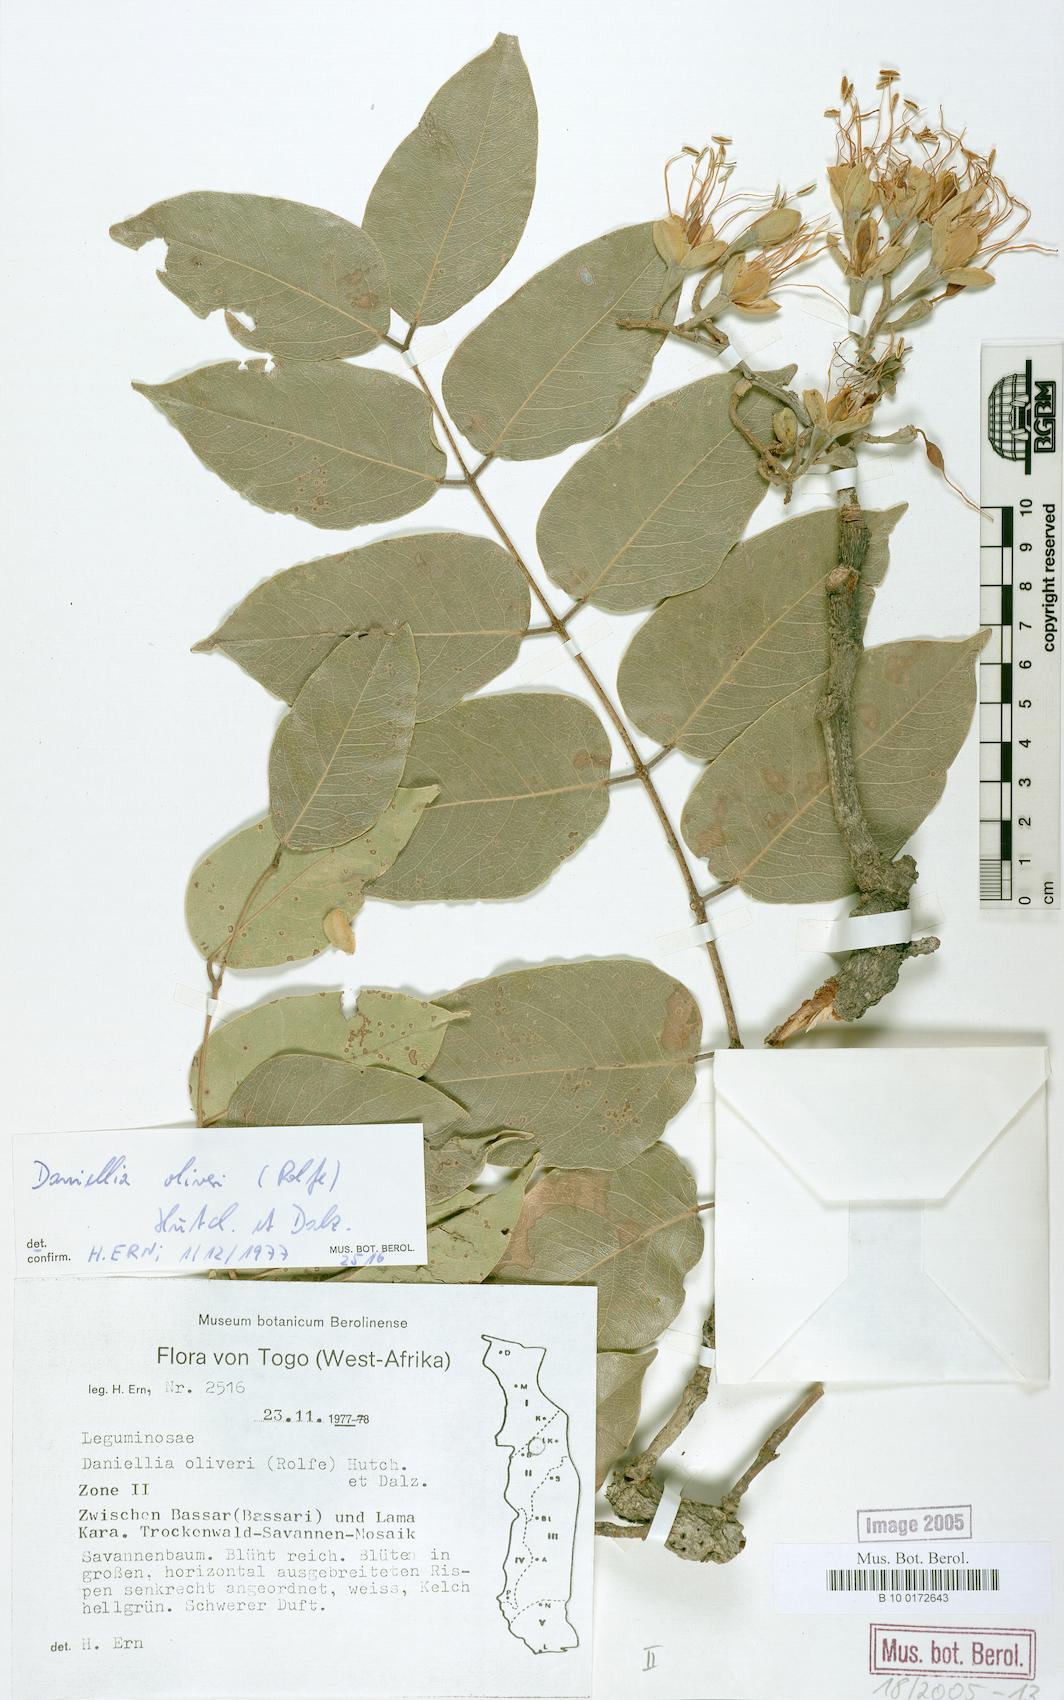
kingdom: Plantae
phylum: Tracheophyta
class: Magnoliopsida
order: Fabales
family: Fabaceae
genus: Daniellia
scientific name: Daniellia oliveri
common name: African copaiba balsamtree
